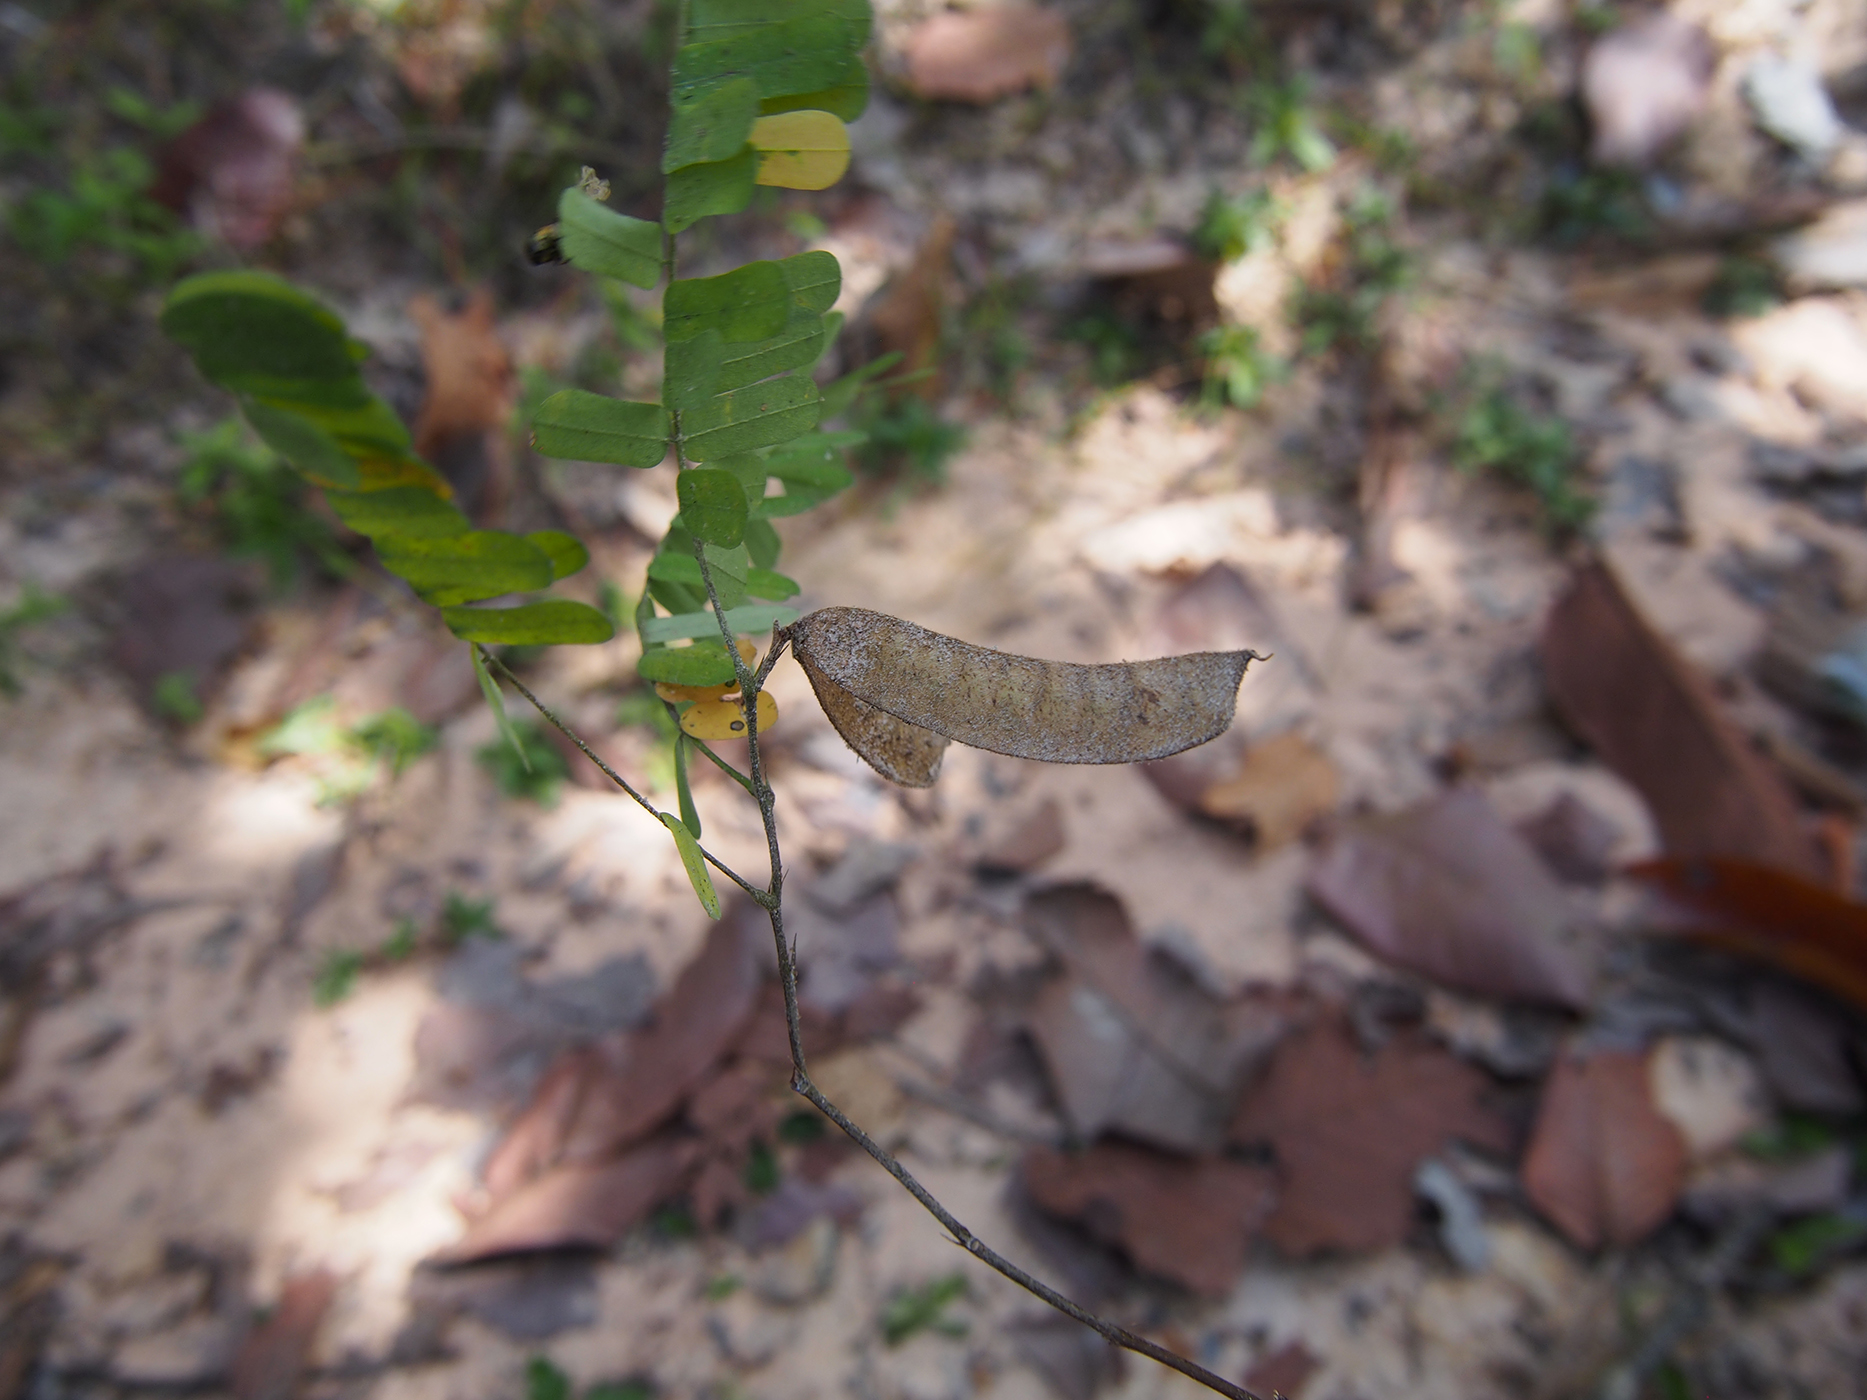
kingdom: Plantae
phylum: Tracheophyta
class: Magnoliopsida
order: Fabales
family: Fabaceae
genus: Abrus
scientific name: Abrus fruticulosus
